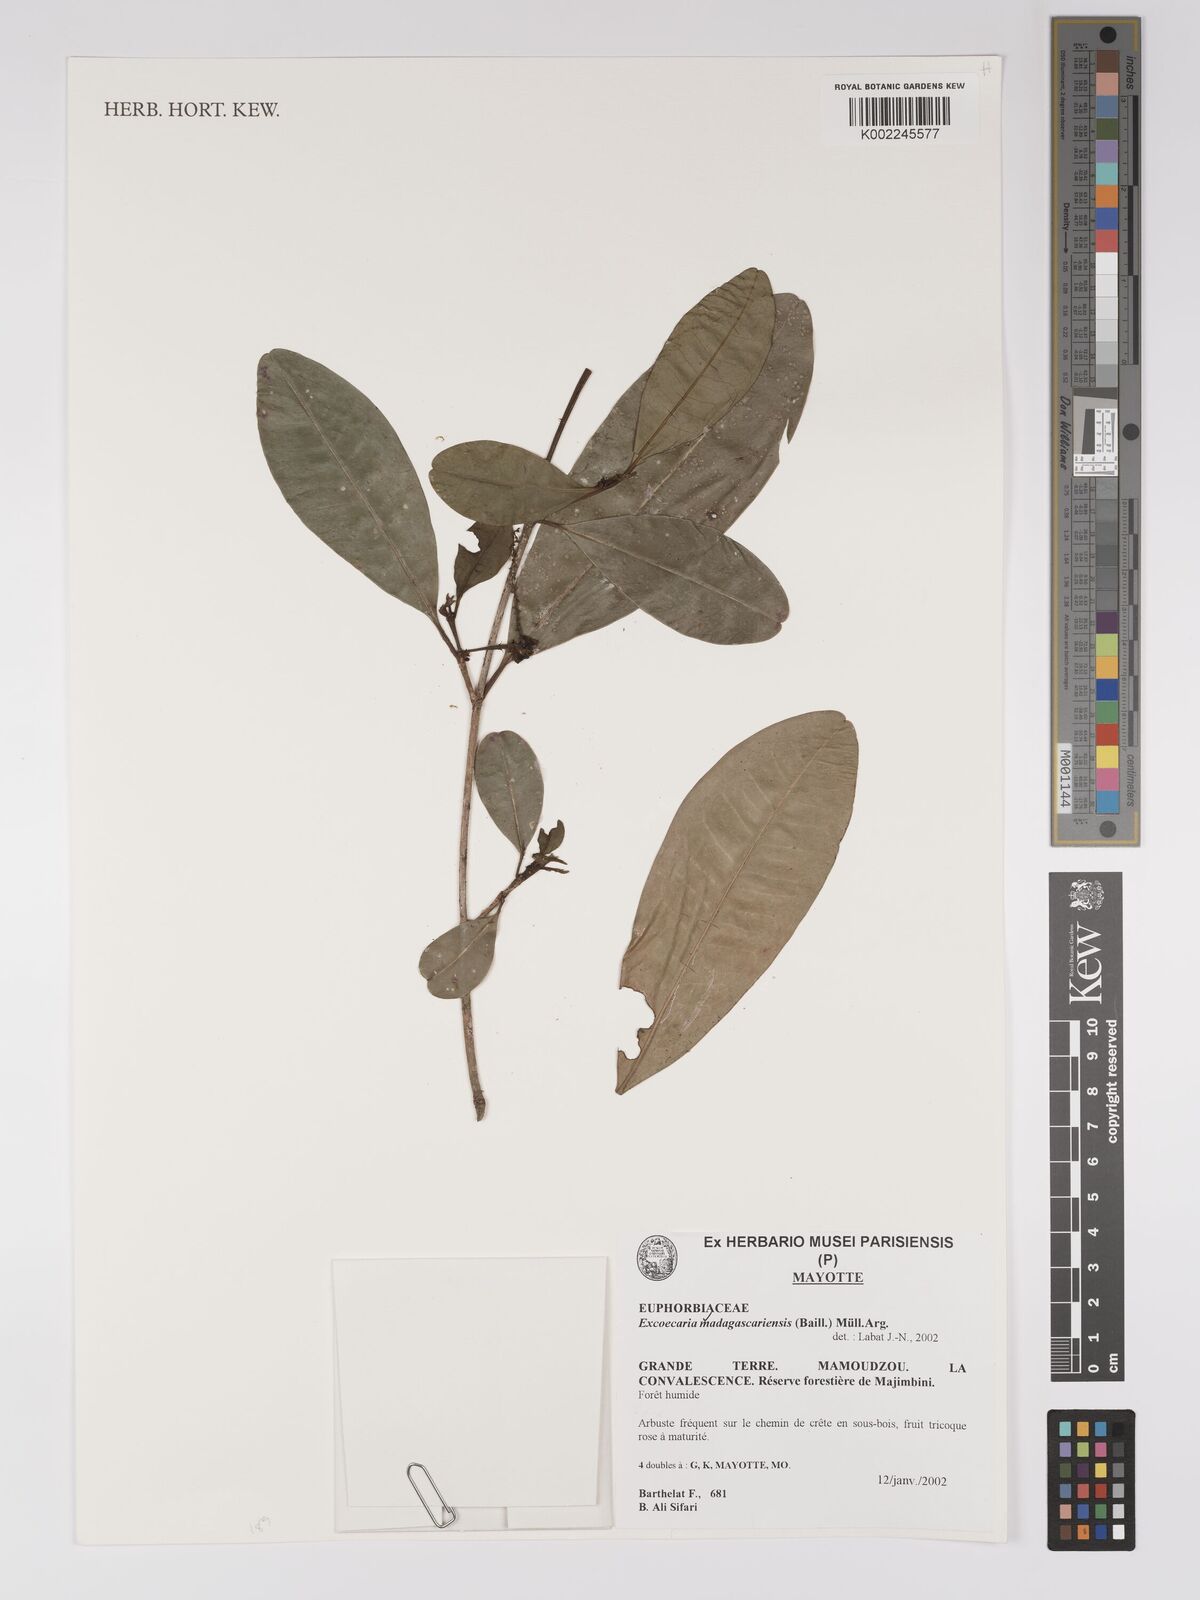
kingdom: Plantae
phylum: Tracheophyta
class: Magnoliopsida
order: Malpighiales
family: Euphorbiaceae
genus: Excoecaria
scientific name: Excoecaria madagascariensis
